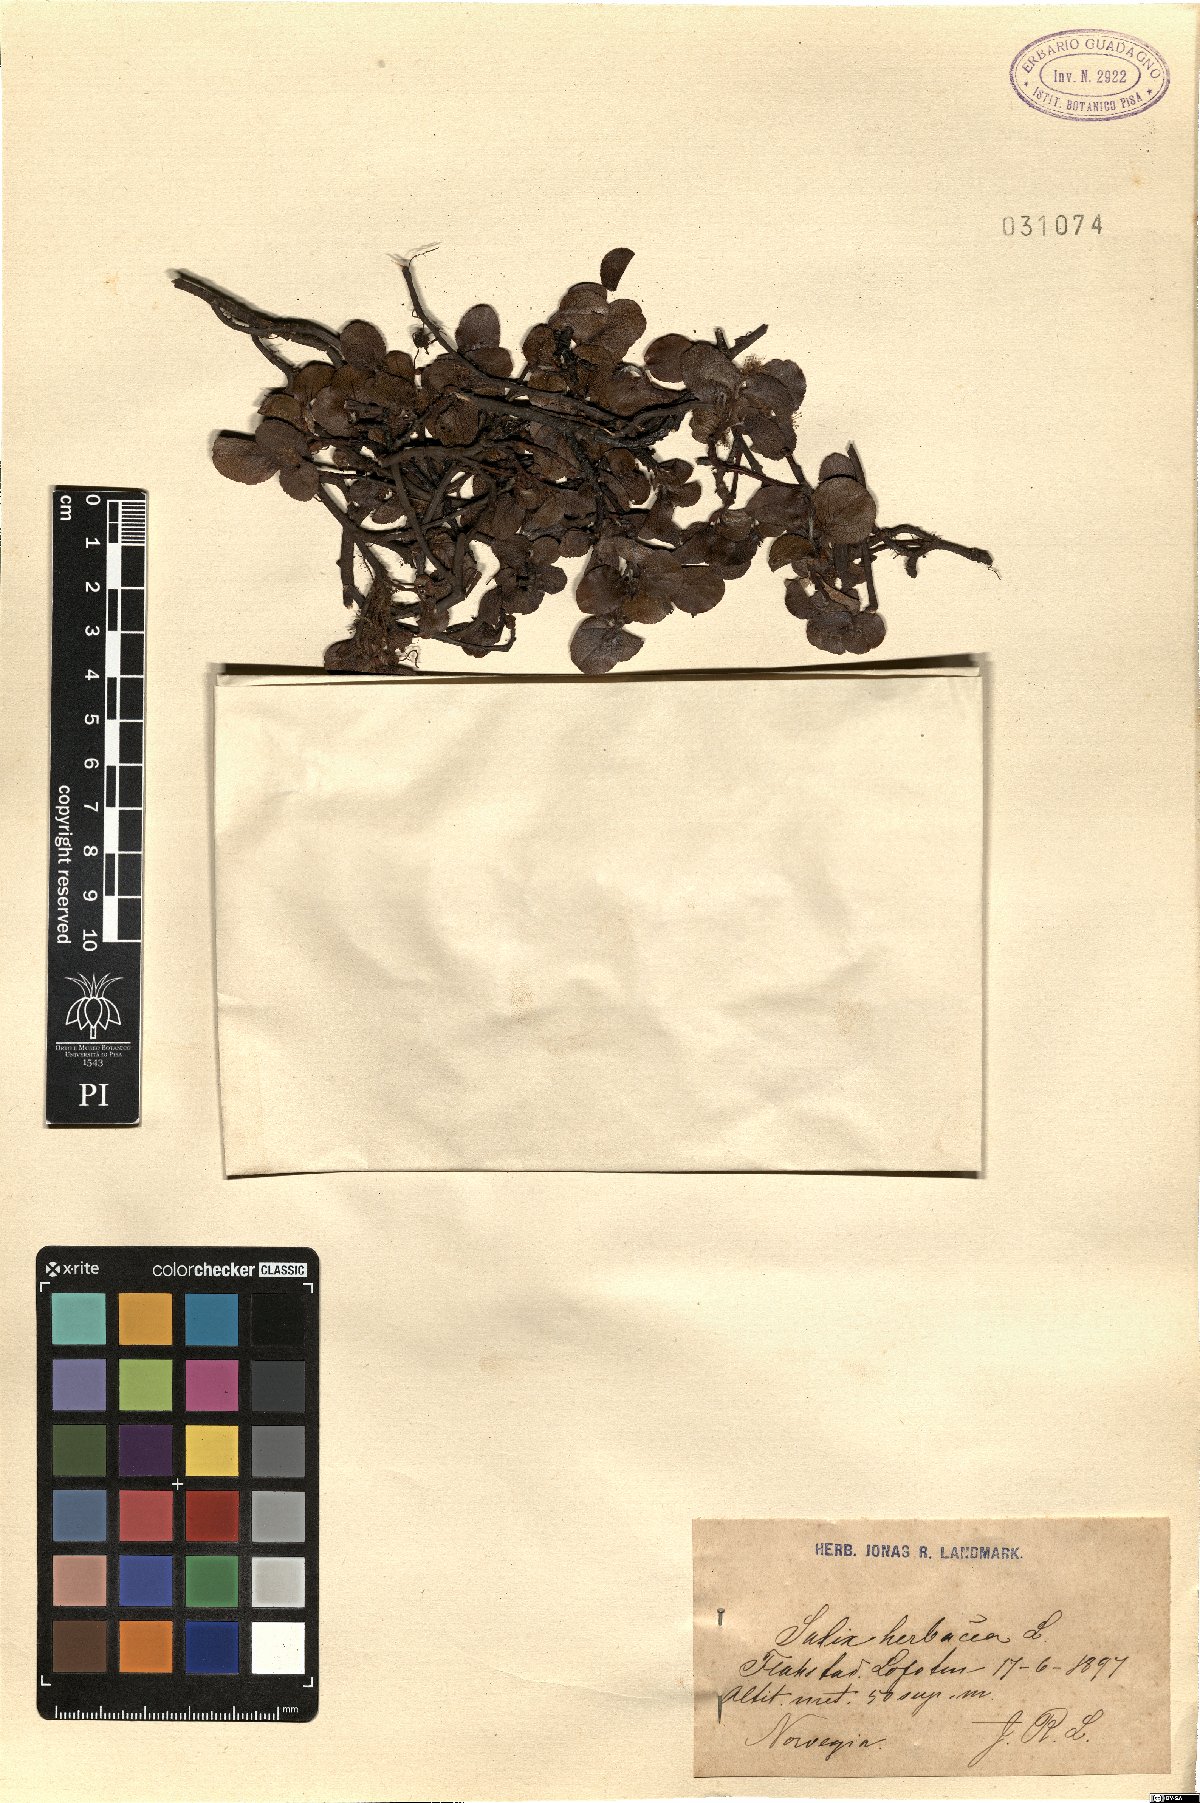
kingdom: Plantae
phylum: Tracheophyta
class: Magnoliopsida
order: Malpighiales
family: Salicaceae
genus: Salix
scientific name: Salix herbacea
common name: Dwarf willow
